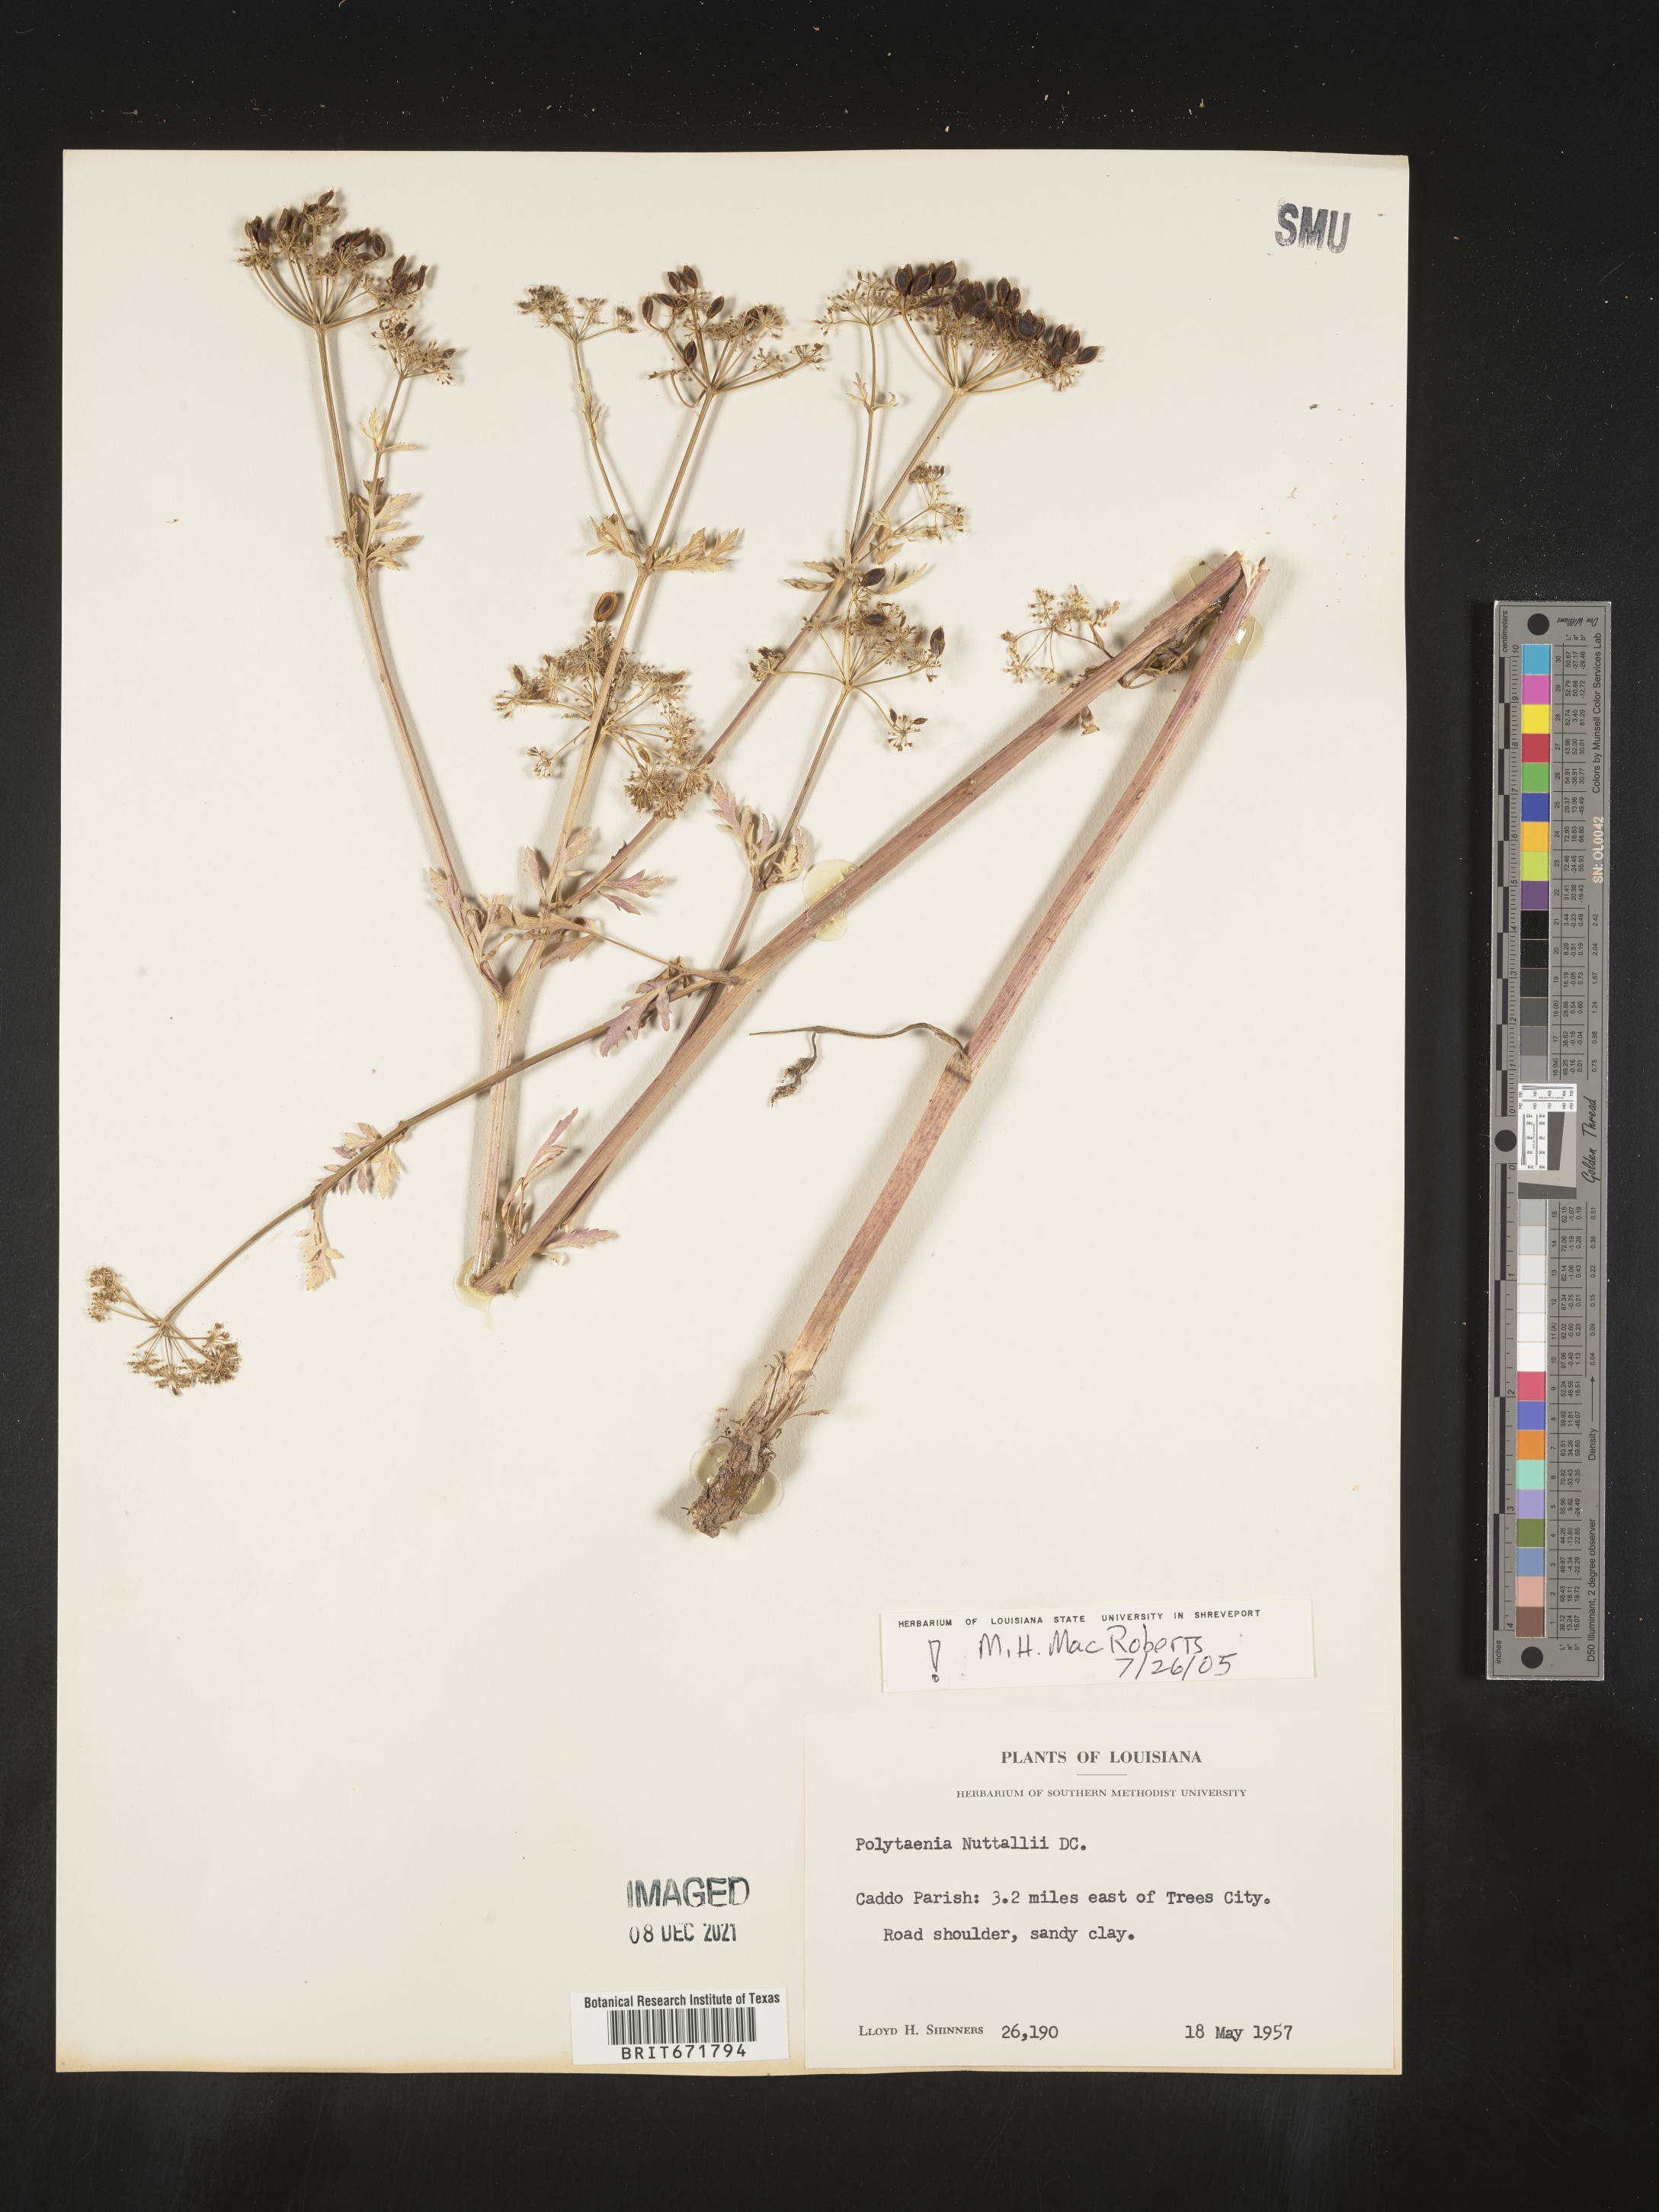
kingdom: Plantae
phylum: Tracheophyta
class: Magnoliopsida
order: Apiales
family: Apiaceae
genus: Polytaenia
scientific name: Polytaenia nuttallii
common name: Prairie-parsley
